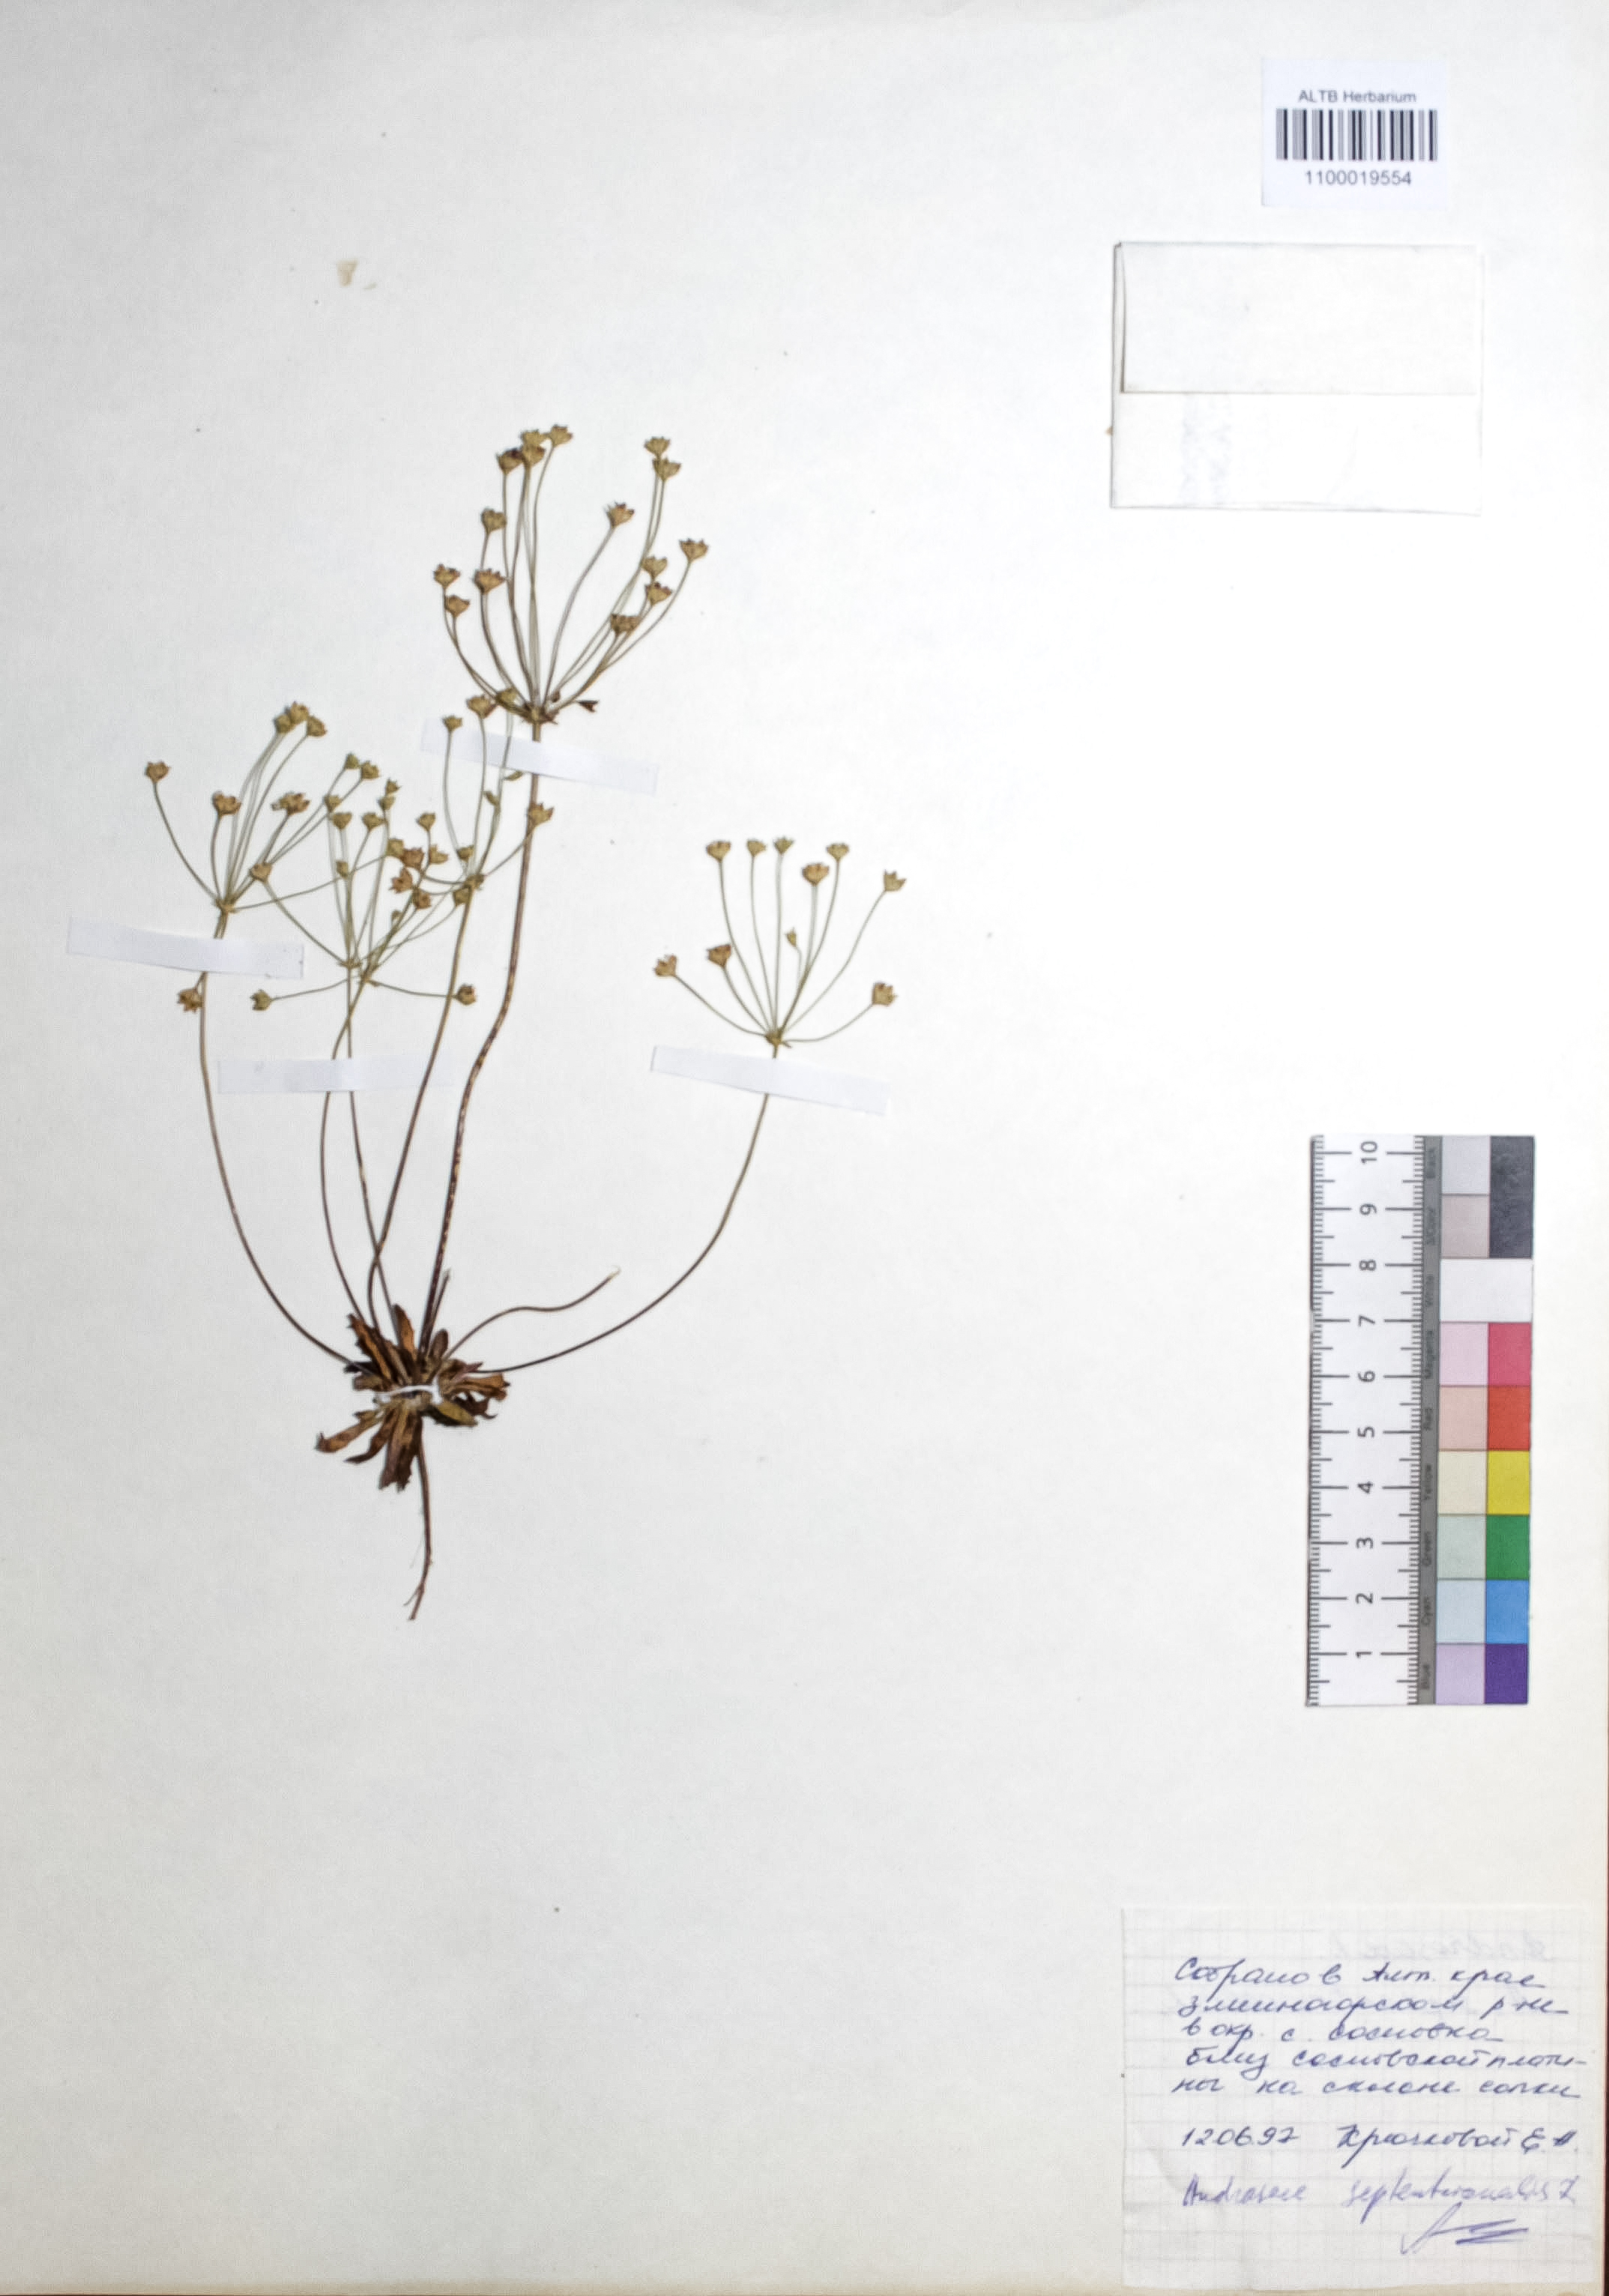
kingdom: Plantae
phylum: Tracheophyta
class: Magnoliopsida
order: Ericales
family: Primulaceae
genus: Androsace
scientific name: Androsace septentrionalis
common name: Hairy northern fairy-candelabra
